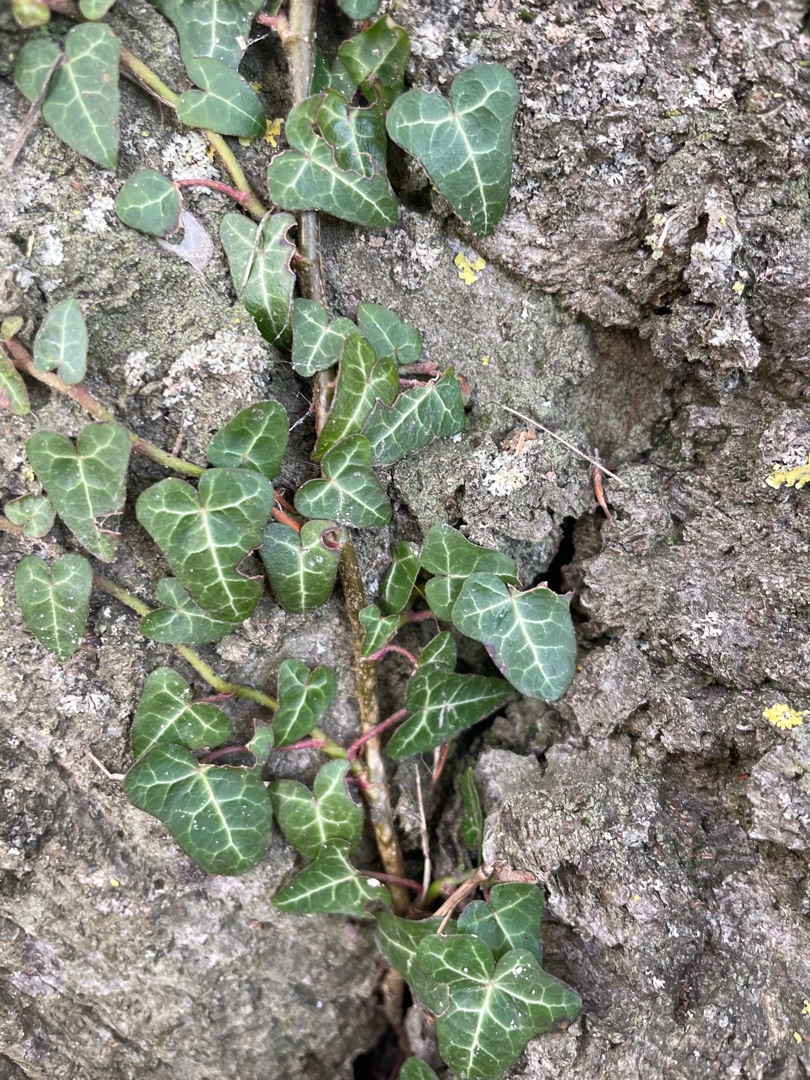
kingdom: Plantae
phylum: Tracheophyta
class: Magnoliopsida
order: Apiales
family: Araliaceae
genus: Hedera
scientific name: Hedera helix
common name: Vedbend
